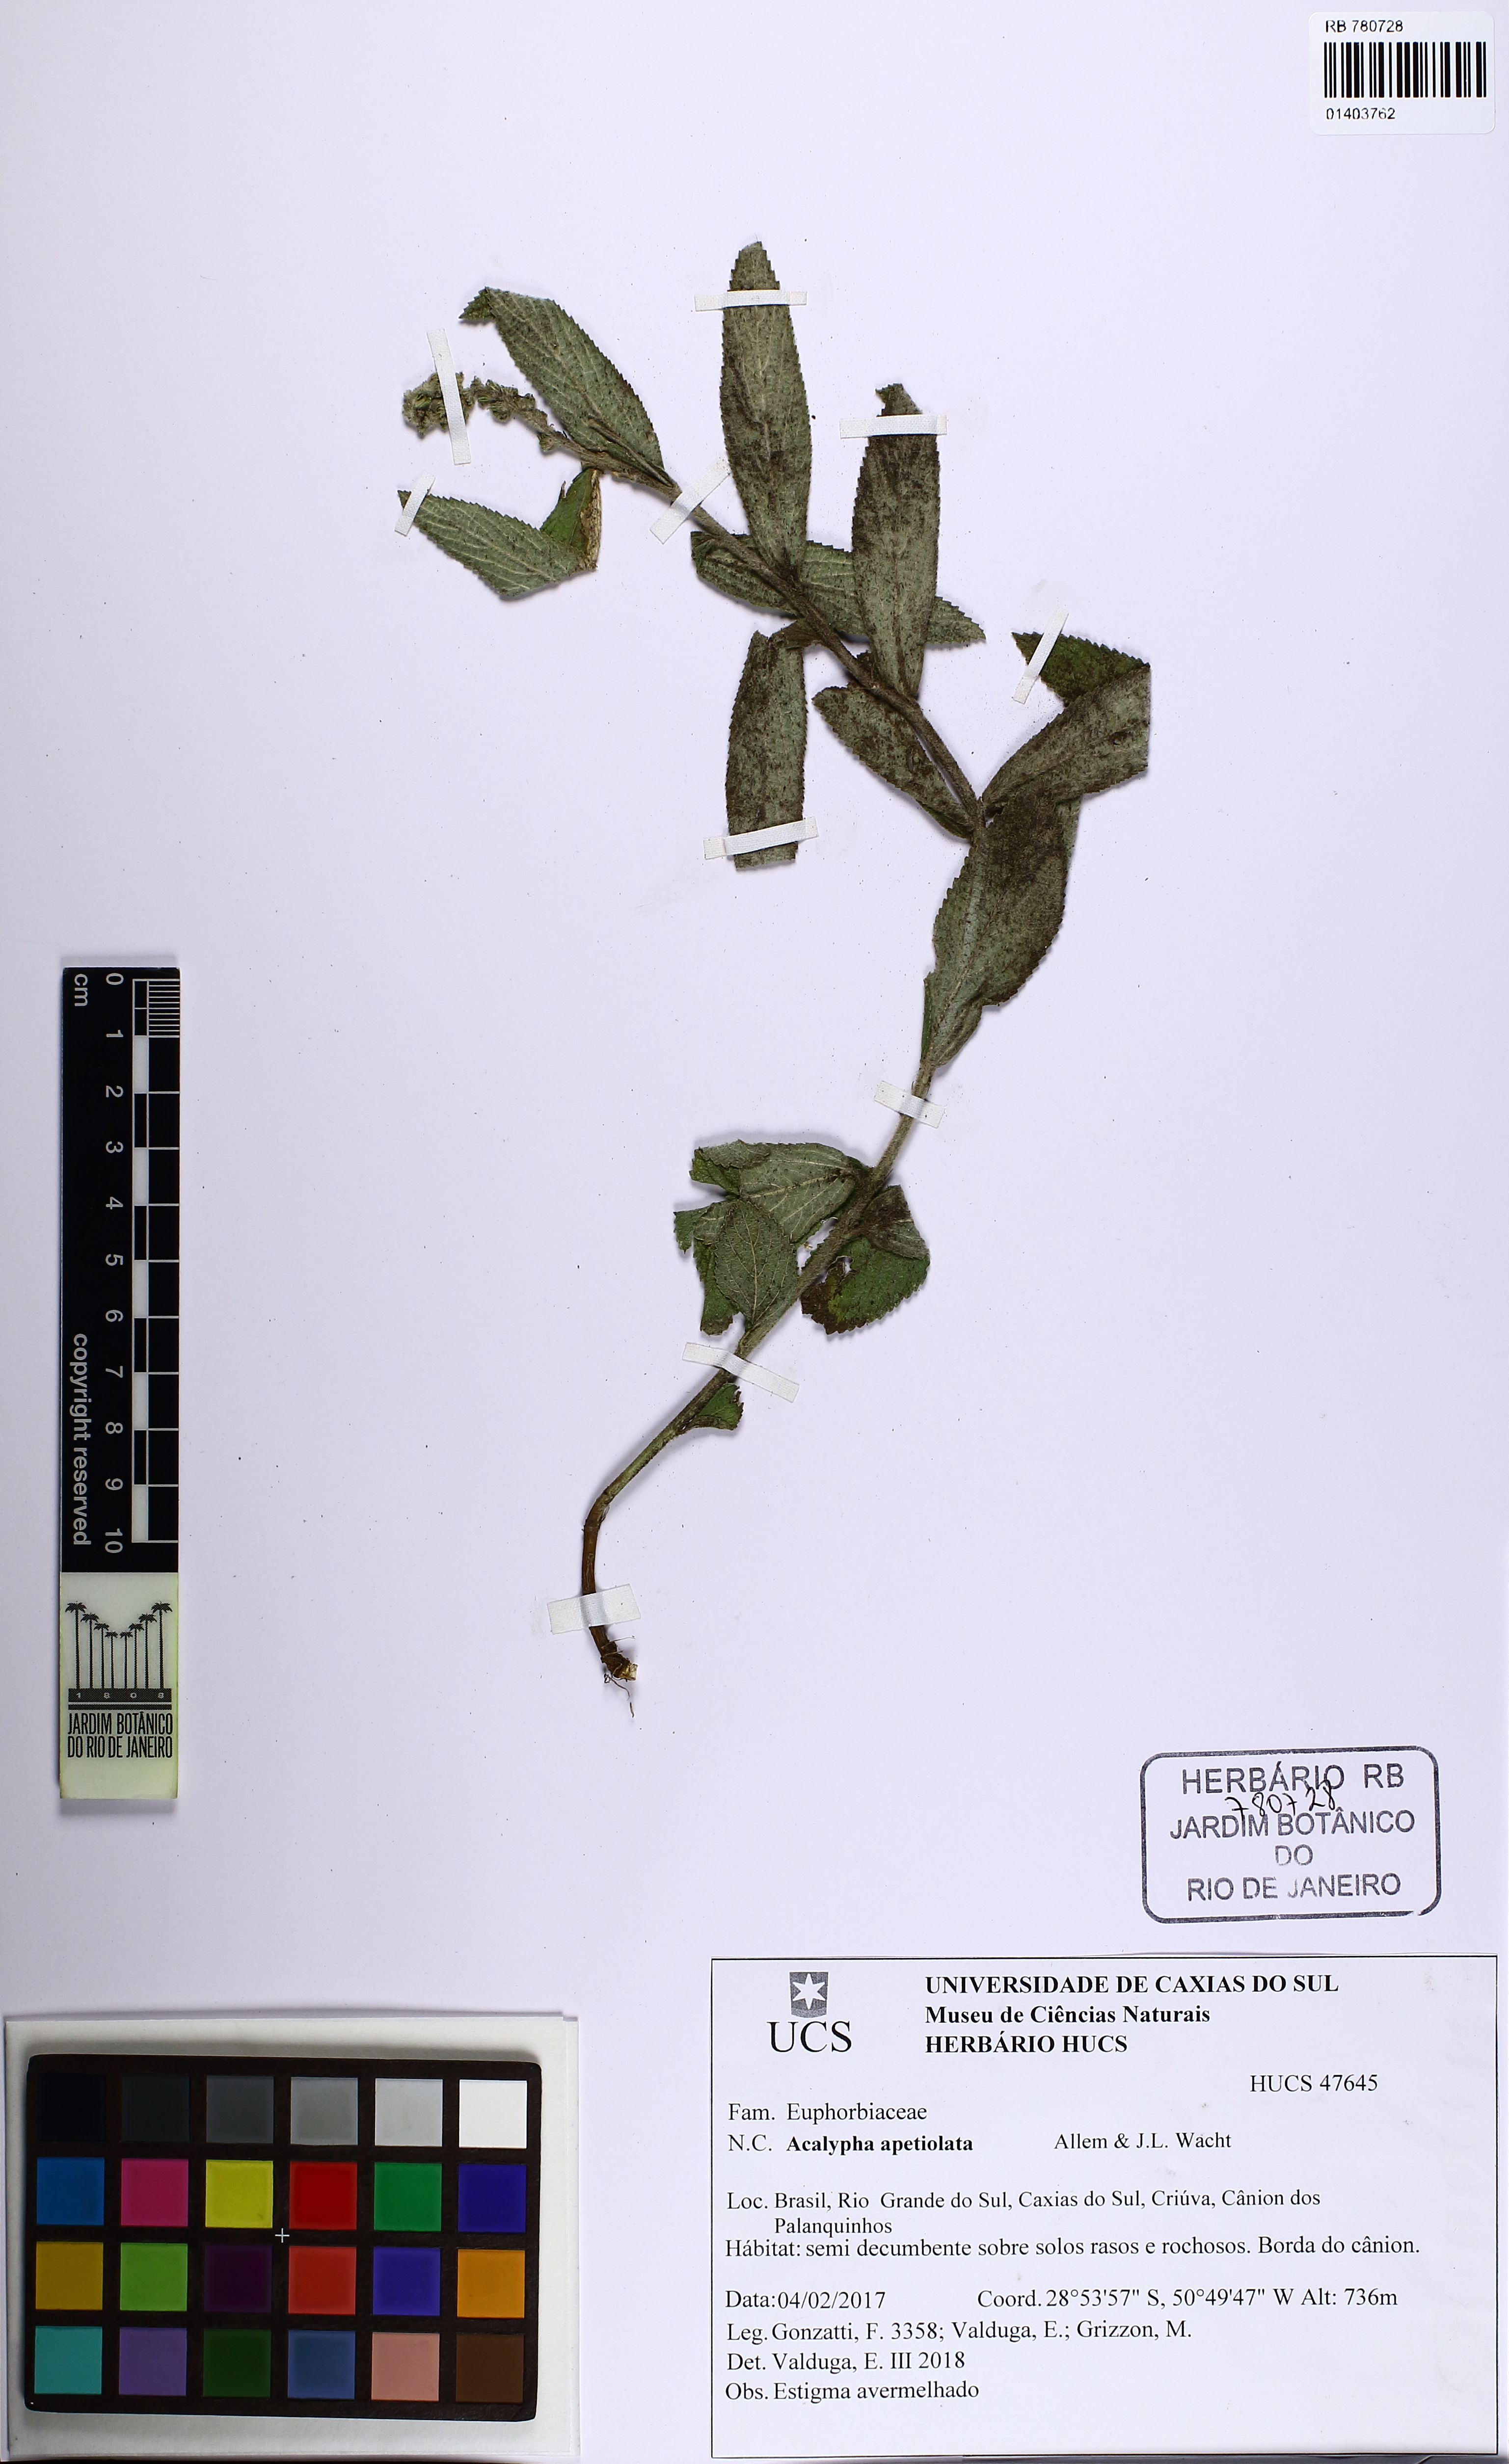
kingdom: Plantae
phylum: Tracheophyta
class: Magnoliopsida
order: Malpighiales
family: Euphorbiaceae
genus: Acalypha
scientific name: Acalypha apetiolata
